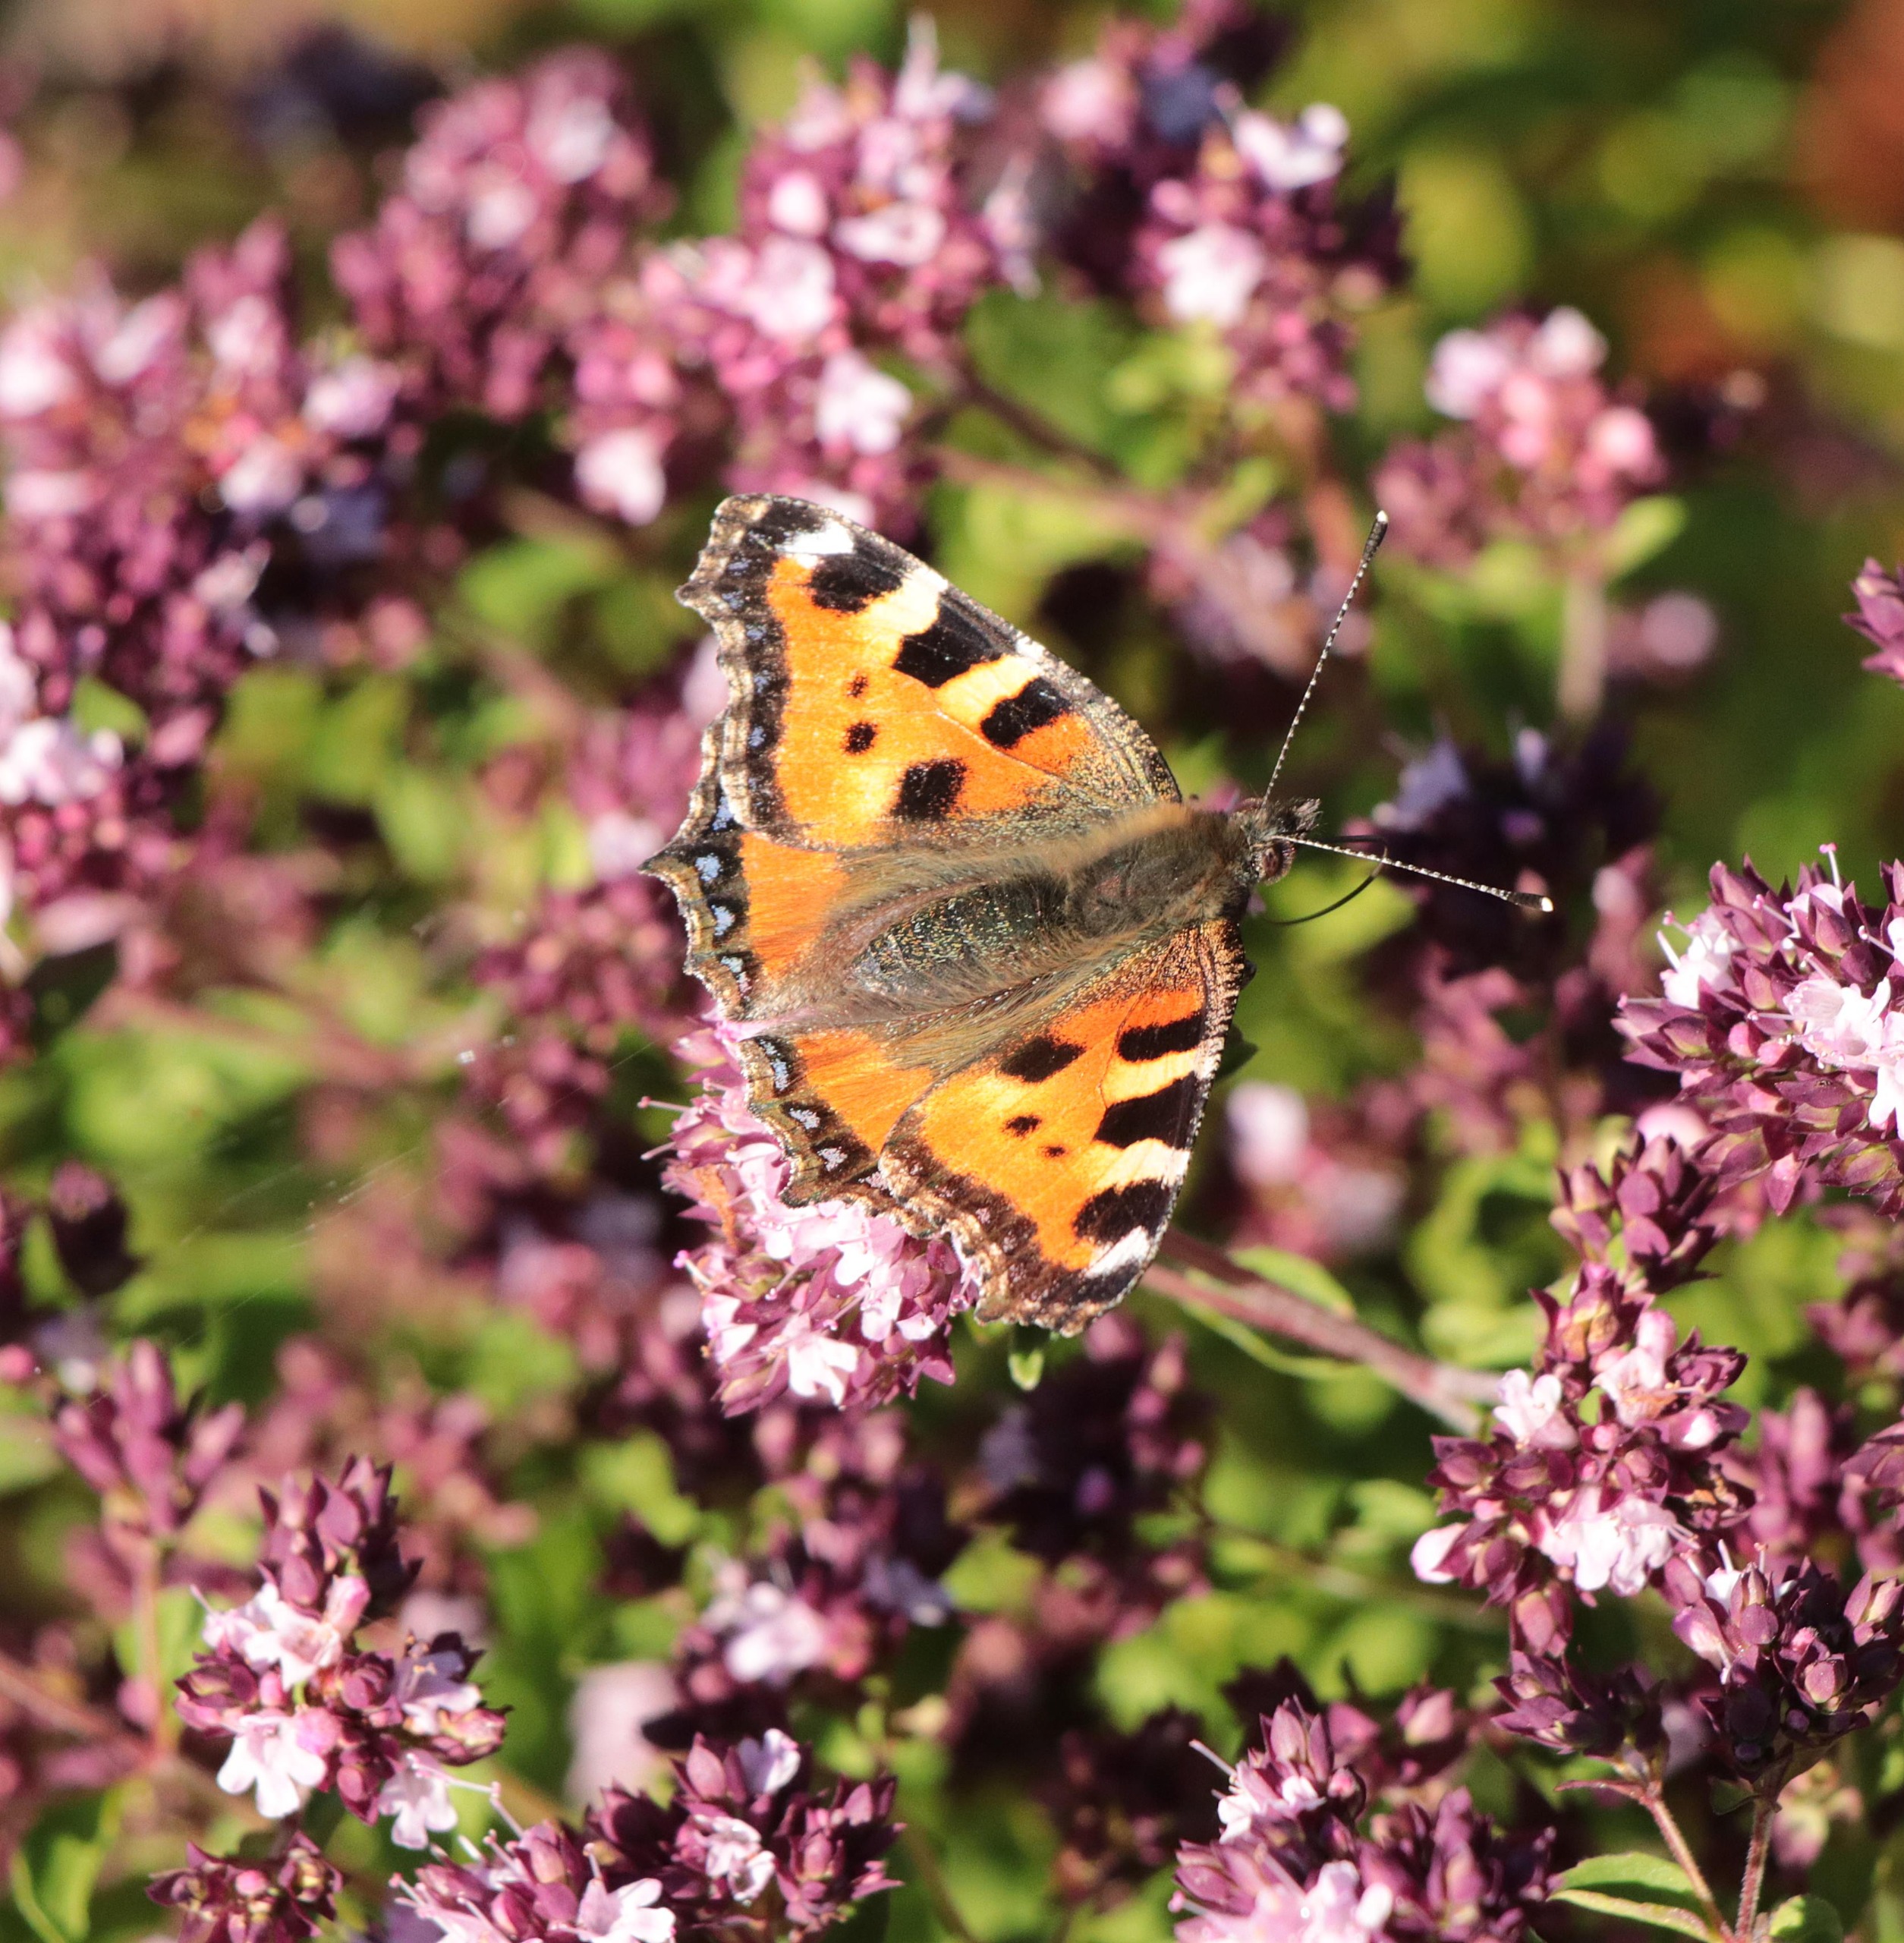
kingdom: Animalia
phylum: Arthropoda
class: Insecta
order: Lepidoptera
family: Nymphalidae
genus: Aglais
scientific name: Aglais urticae
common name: Nældens takvinge
